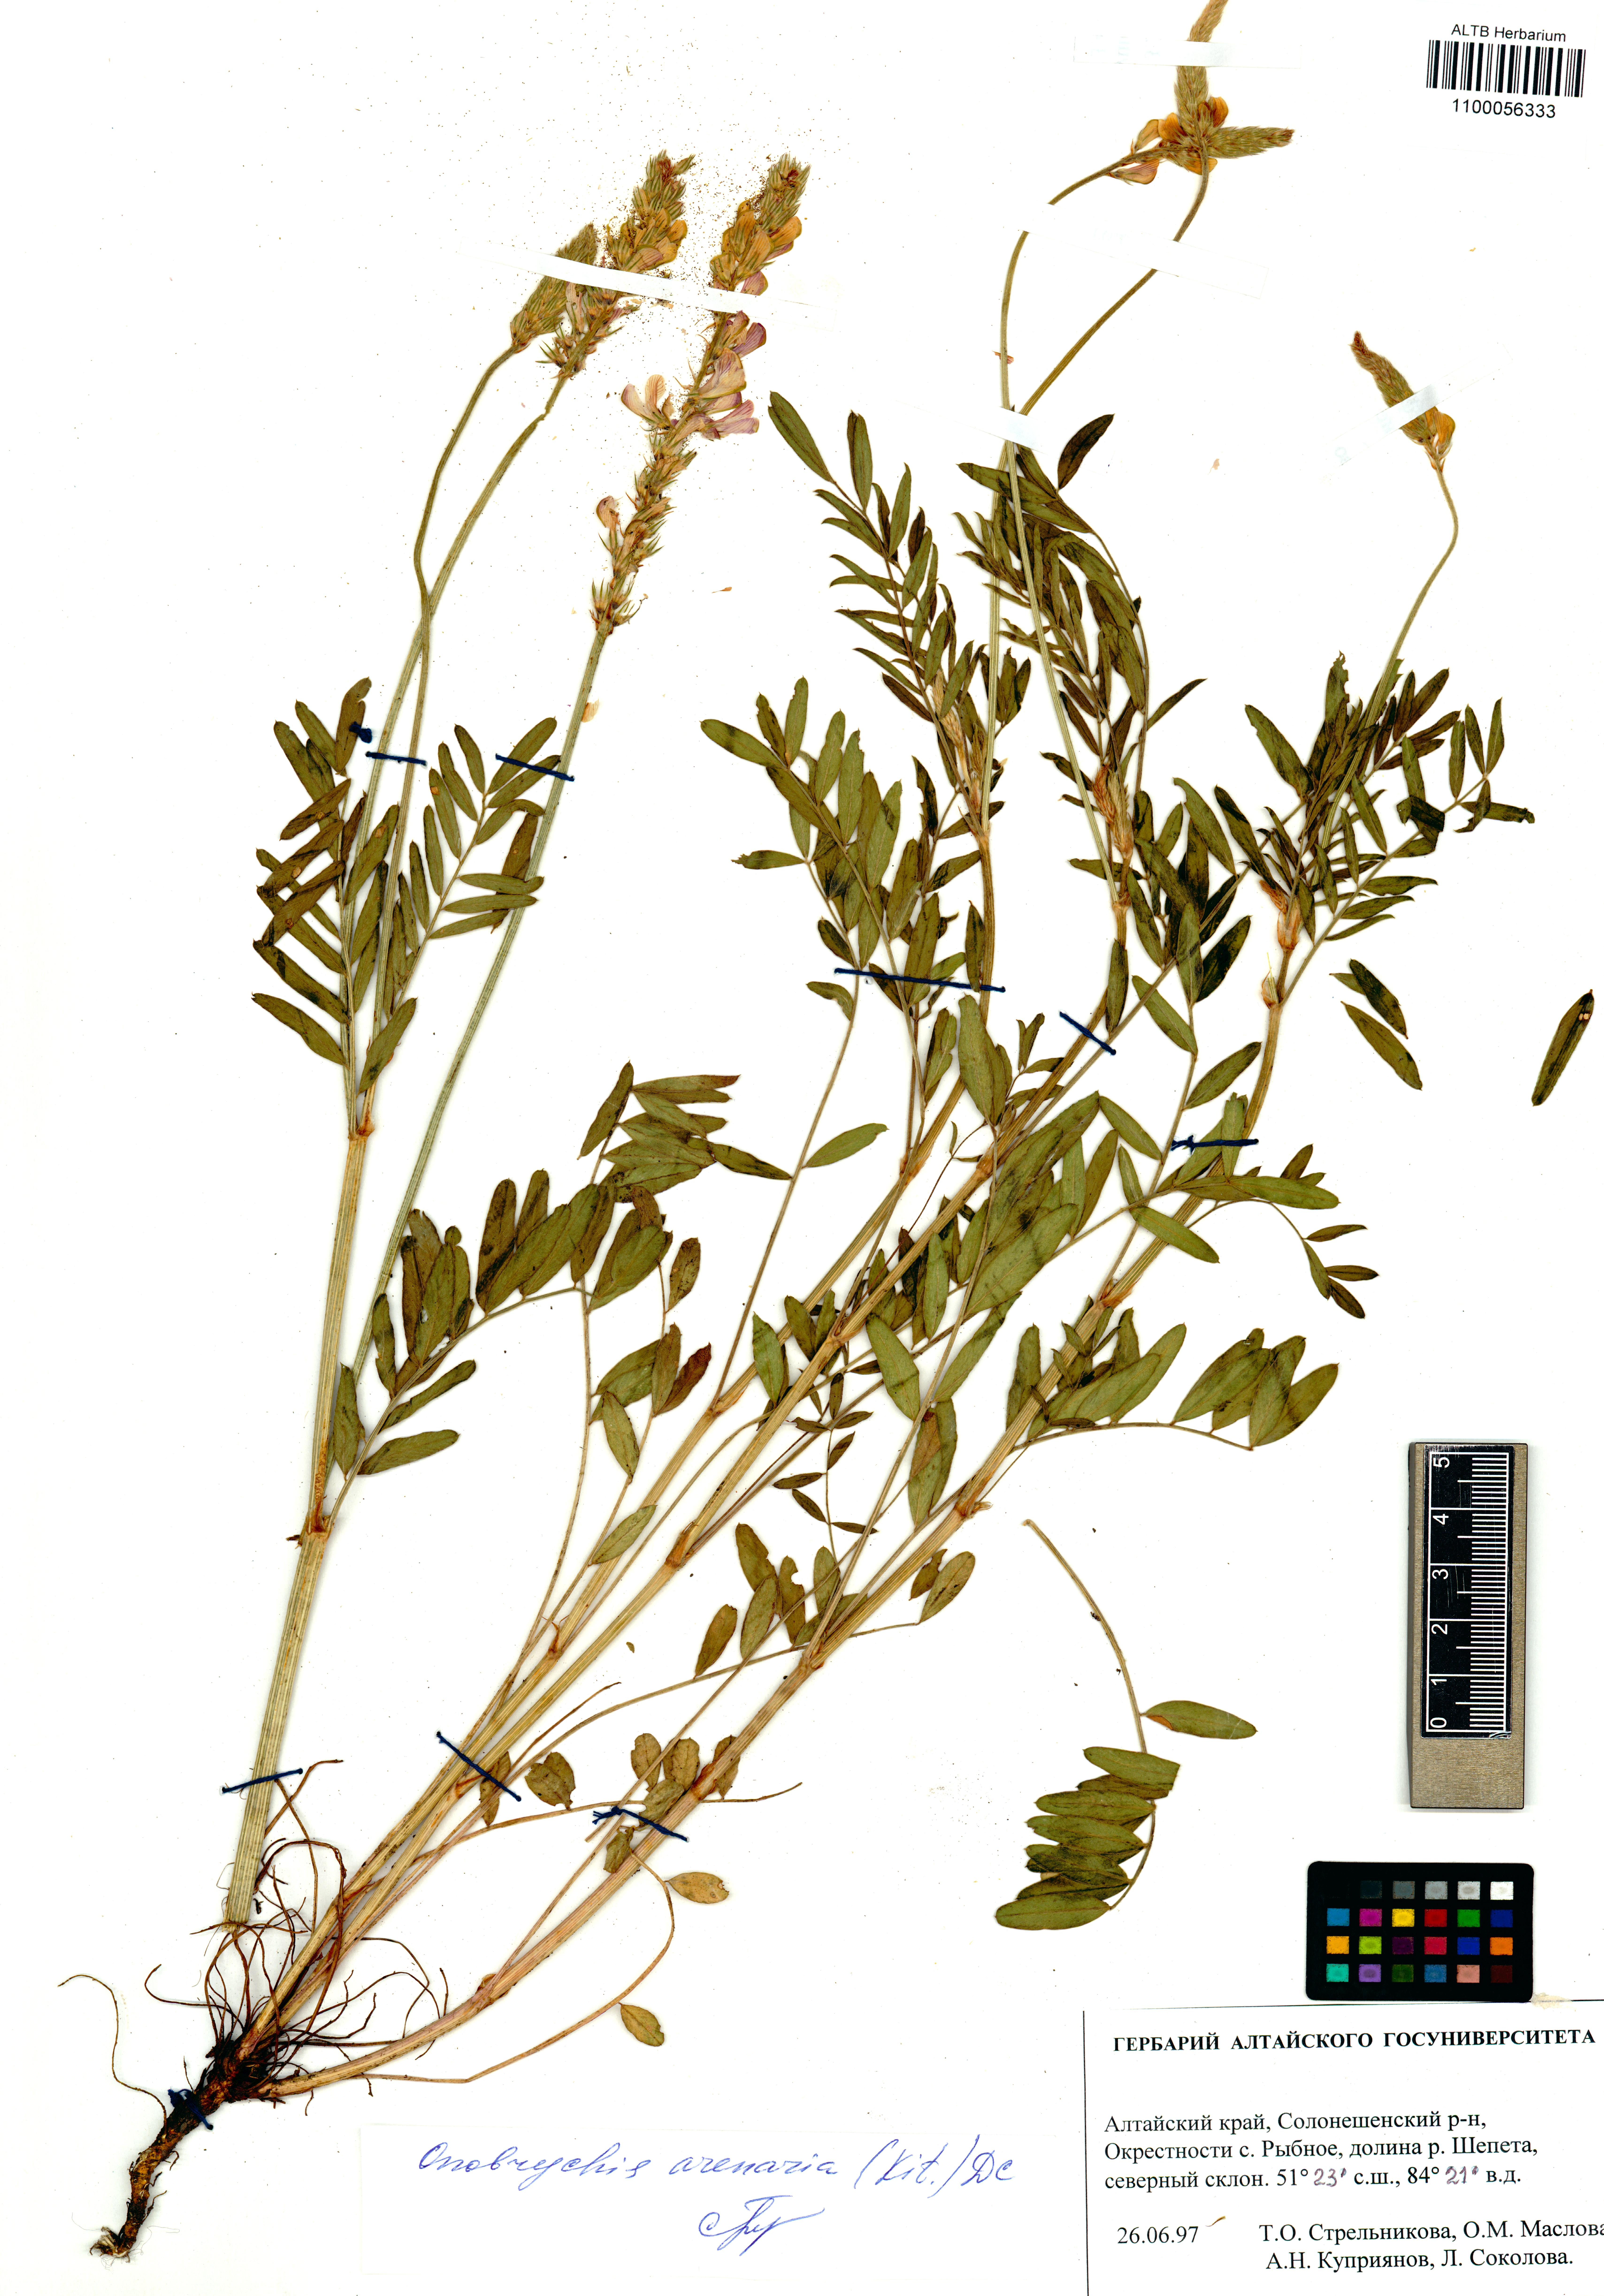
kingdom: Plantae
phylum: Tracheophyta
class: Magnoliopsida
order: Fabales
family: Fabaceae
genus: Onobrychis
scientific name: Onobrychis arenaria
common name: Sand esparcet
